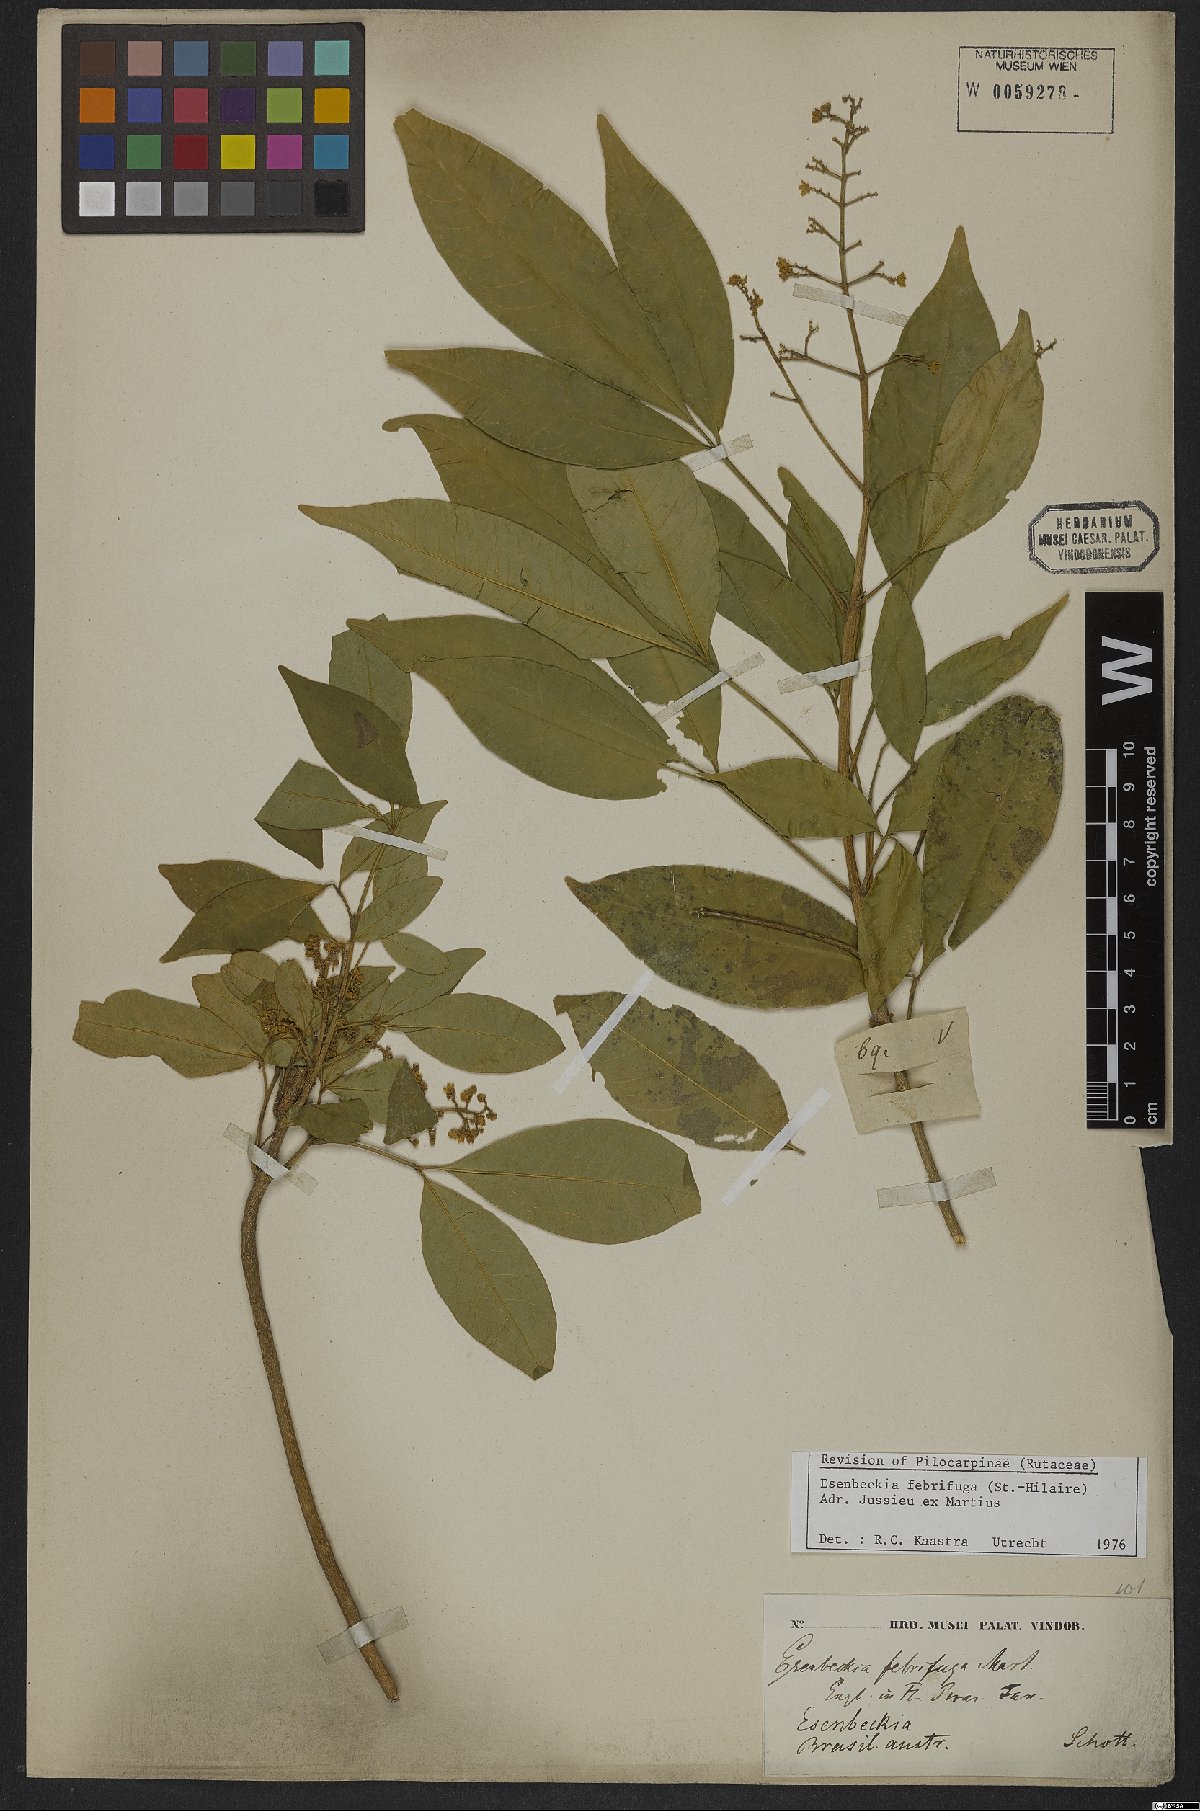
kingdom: Plantae
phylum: Tracheophyta
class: Magnoliopsida
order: Sapindales
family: Rutaceae
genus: Esenbeckia
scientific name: Esenbeckia febrifuga
